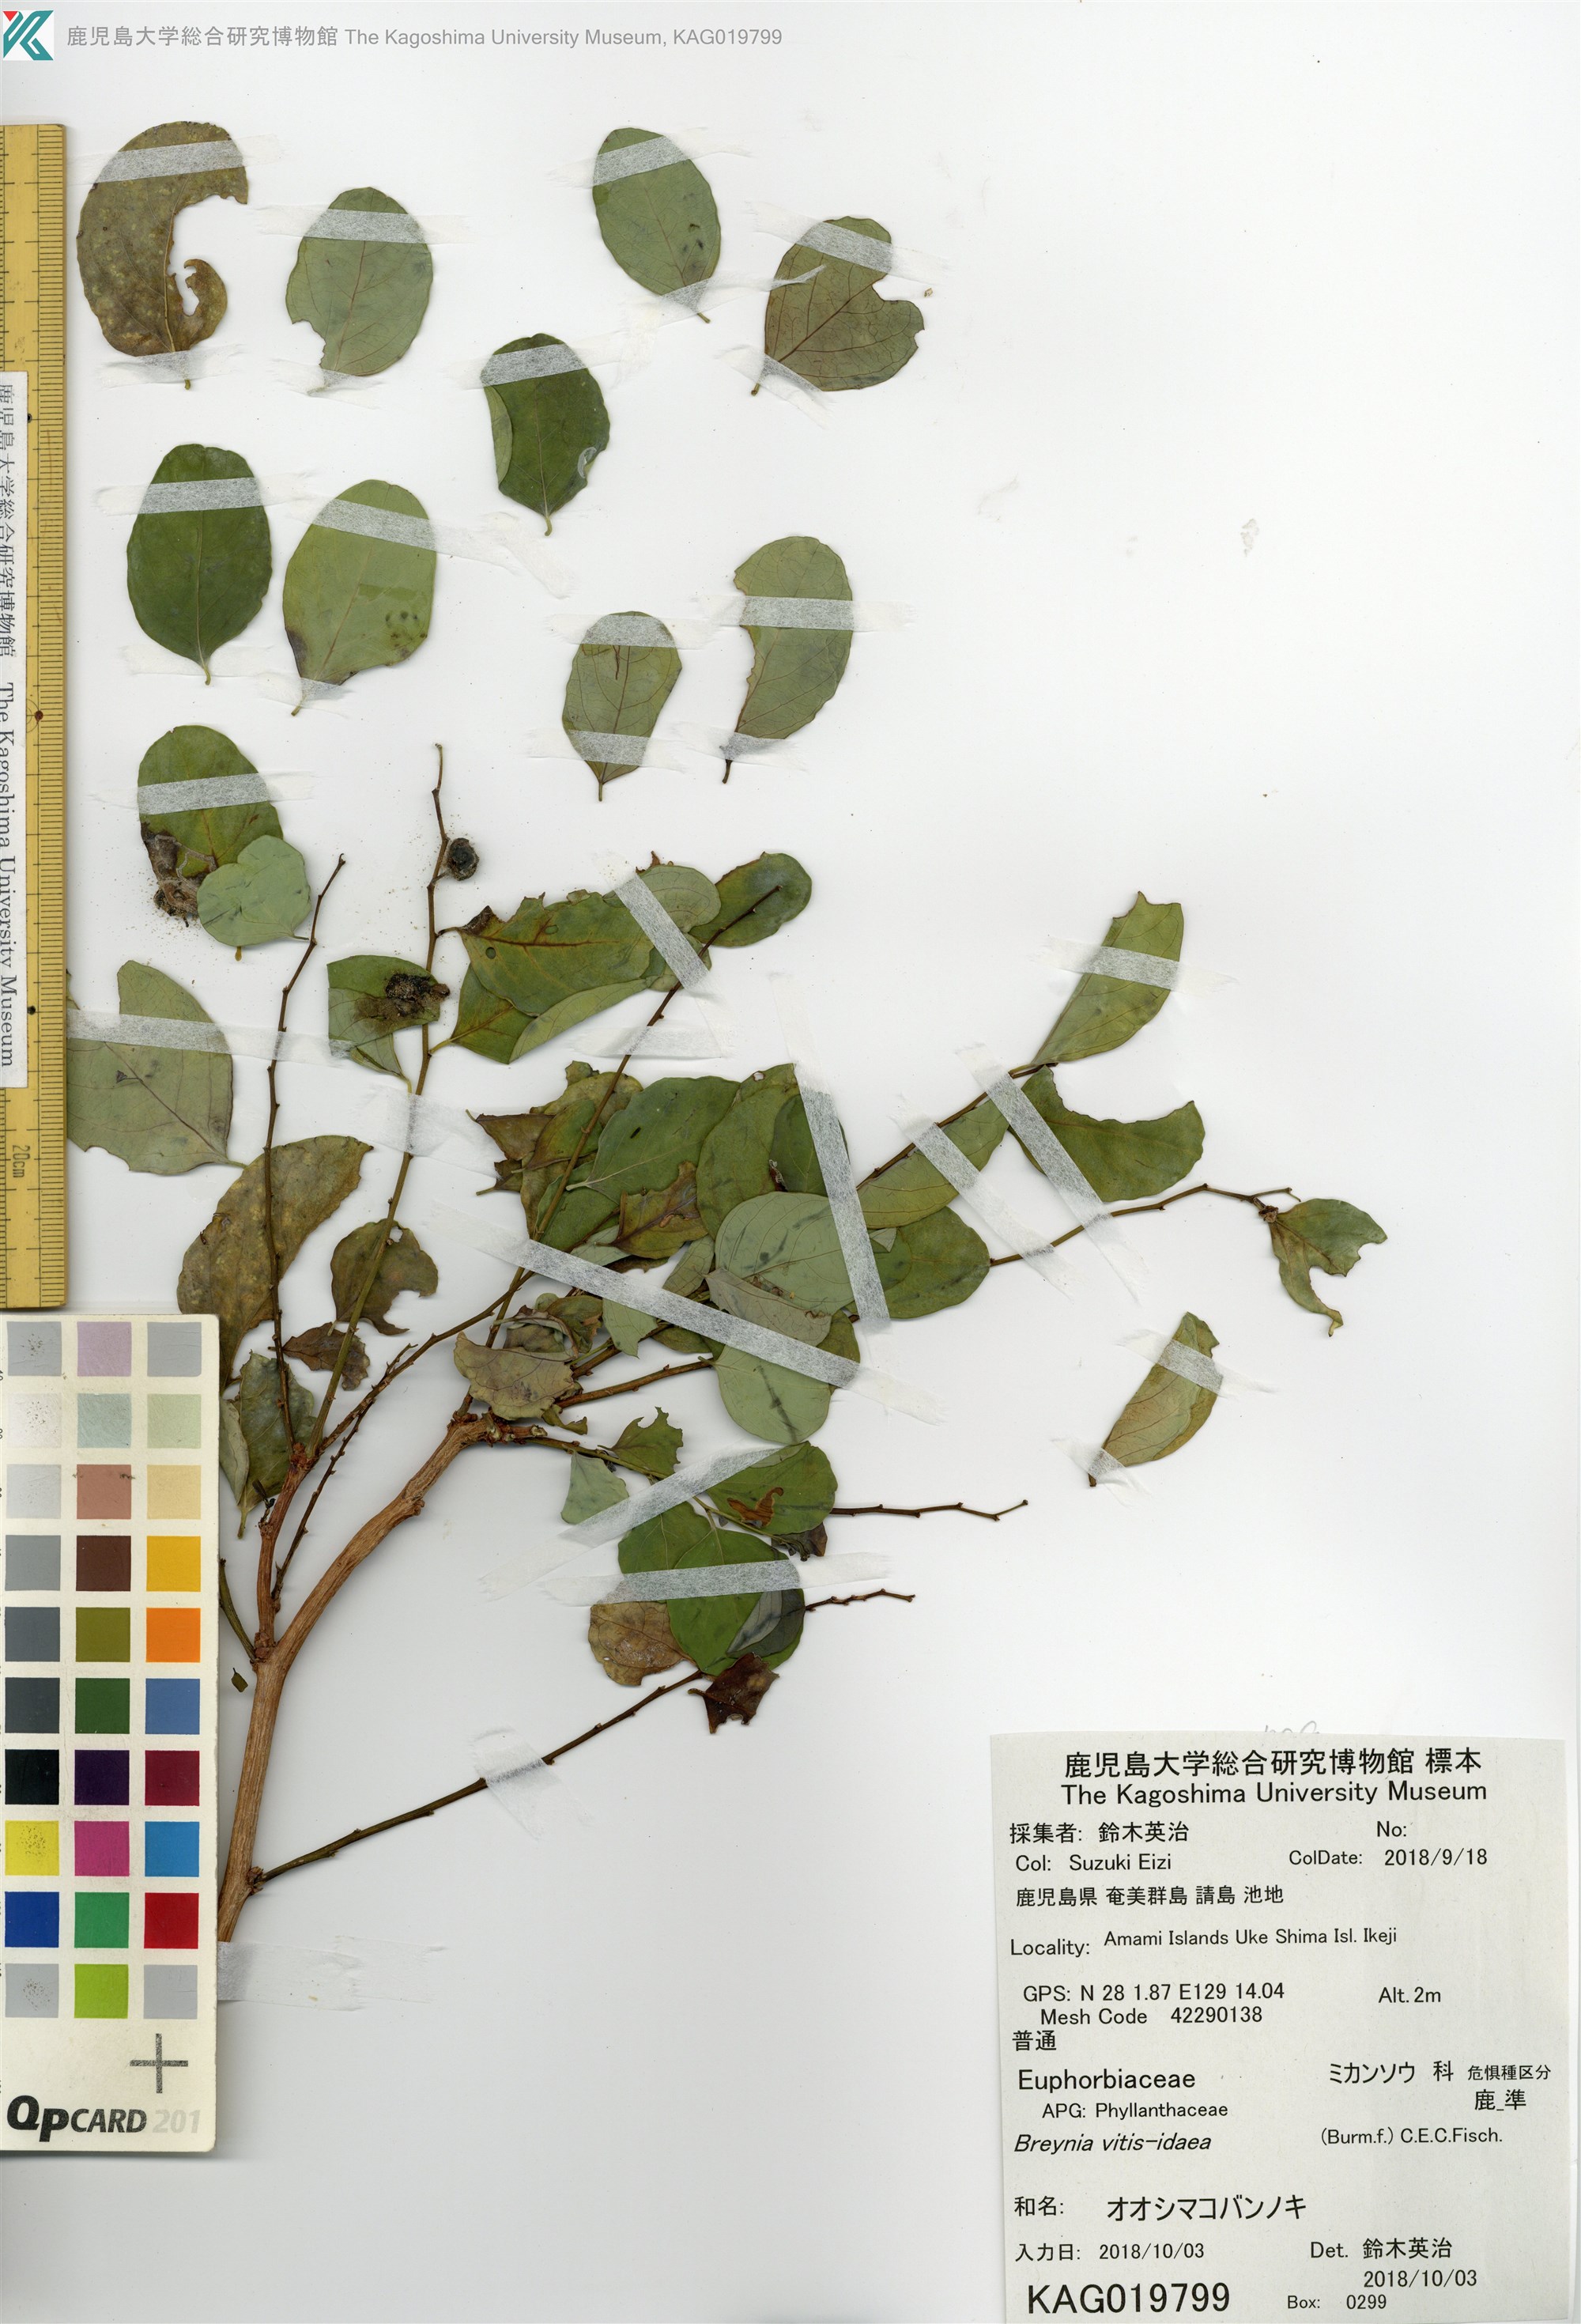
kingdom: Plantae
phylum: Tracheophyta
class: Magnoliopsida
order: Malpighiales
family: Phyllanthaceae
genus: Breynia
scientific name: Breynia officinalis
